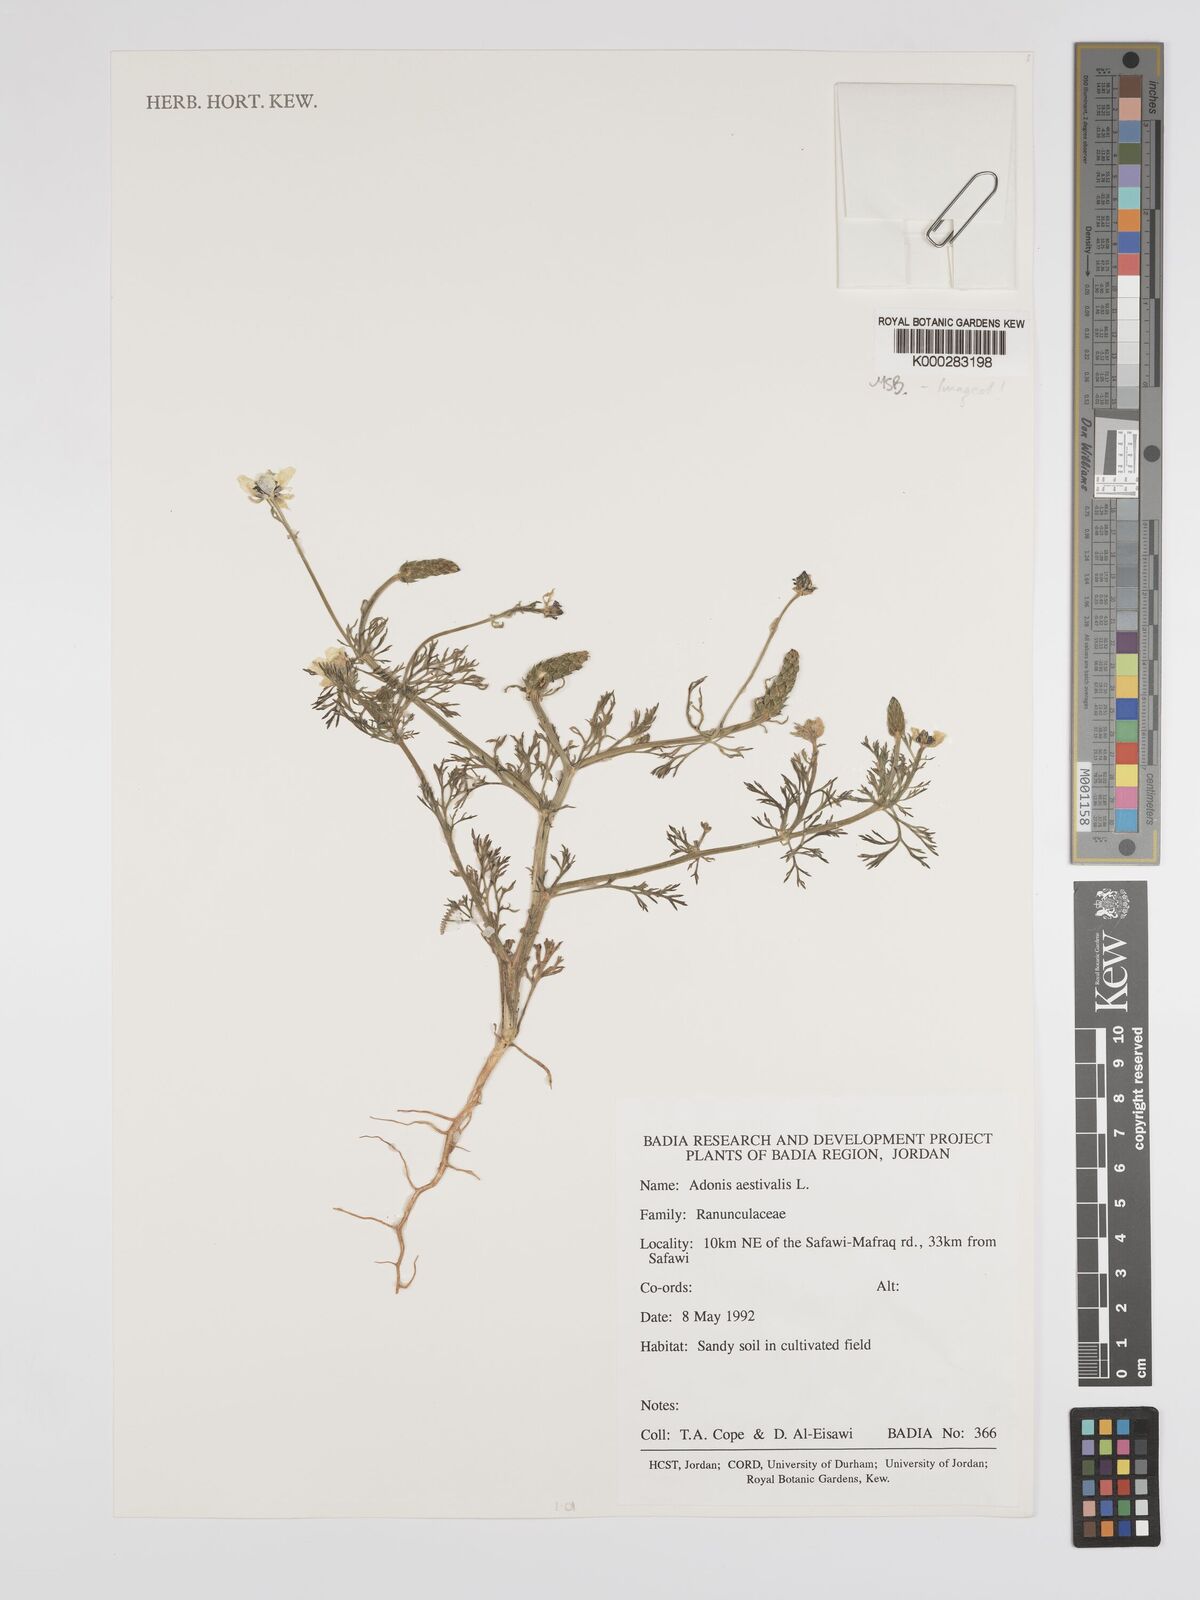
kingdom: Plantae
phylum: Tracheophyta
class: Magnoliopsida
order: Ranunculales
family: Ranunculaceae
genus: Adonis
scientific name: Adonis aestivalis
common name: Summer pheasant's-eye
